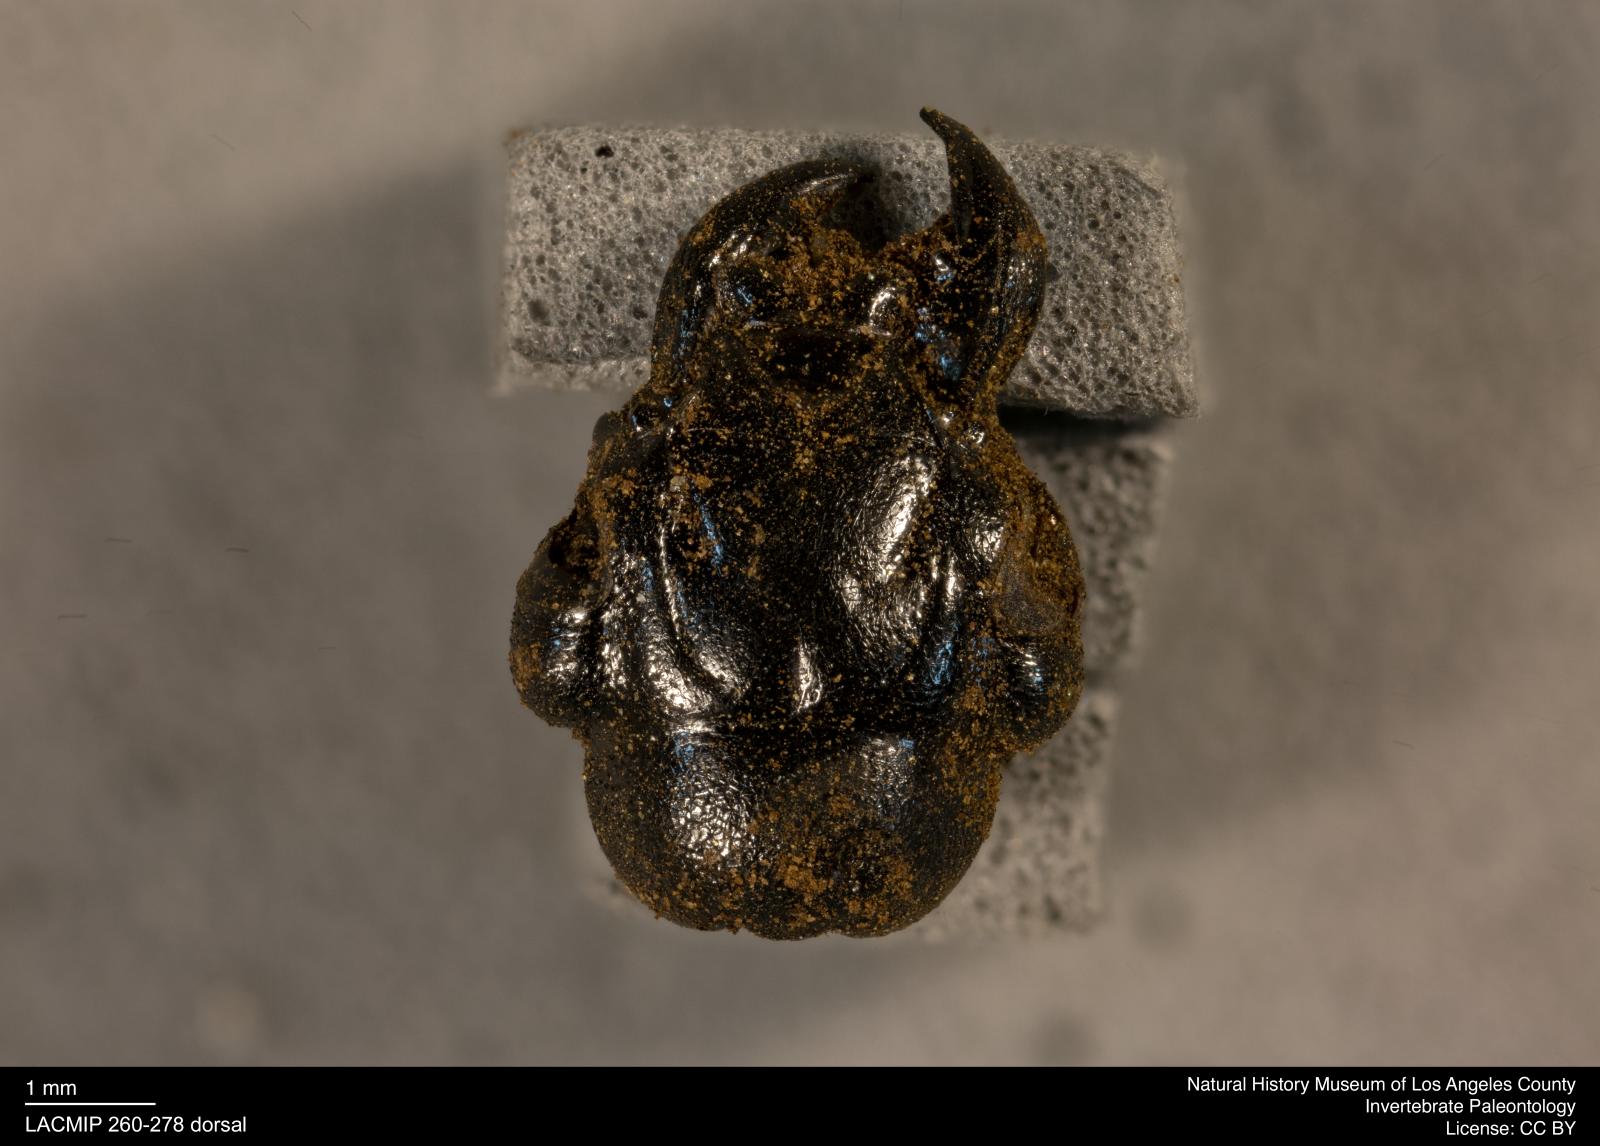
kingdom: Animalia
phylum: Arthropoda
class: Insecta
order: Coleoptera
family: Staphylinidae
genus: Nicrophorus
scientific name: Nicrophorus
